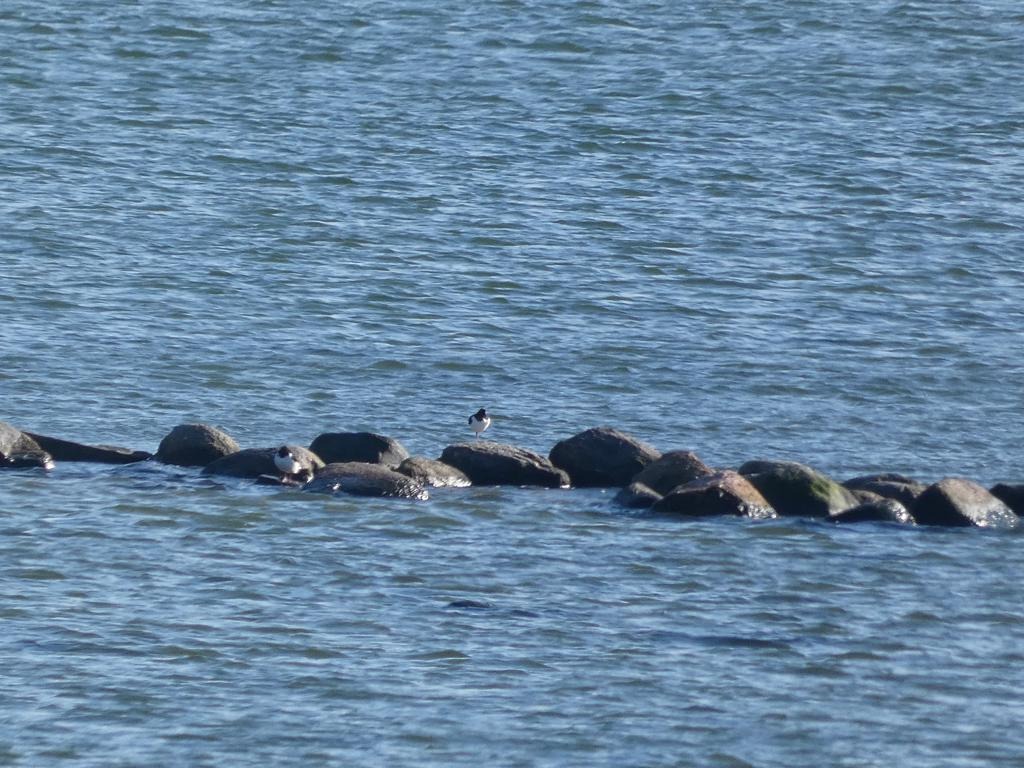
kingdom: Animalia
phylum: Chordata
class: Aves
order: Charadriiformes
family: Haematopodidae
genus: Haematopus
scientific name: Haematopus ostralegus
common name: Strandskade
